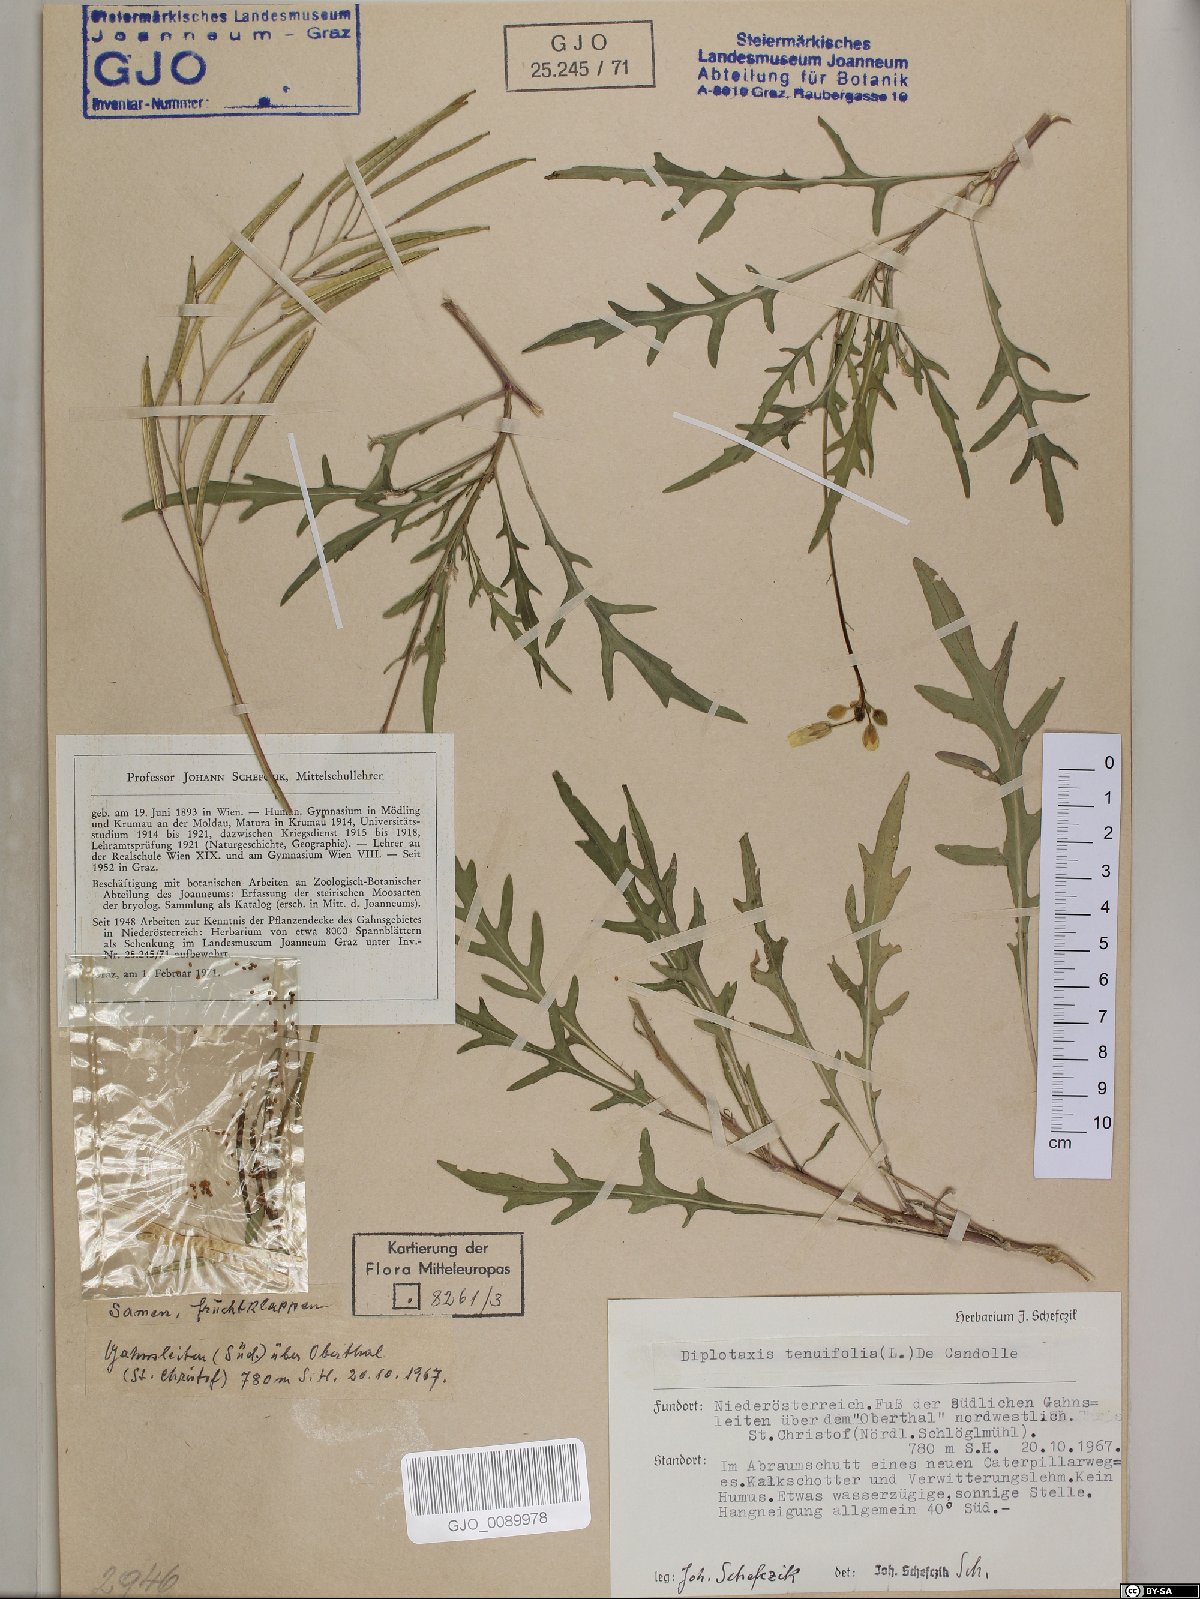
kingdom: Plantae
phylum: Tracheophyta
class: Magnoliopsida
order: Brassicales
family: Brassicaceae
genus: Diplotaxis
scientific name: Diplotaxis tenuifolia
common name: Perennial wall-rocket
